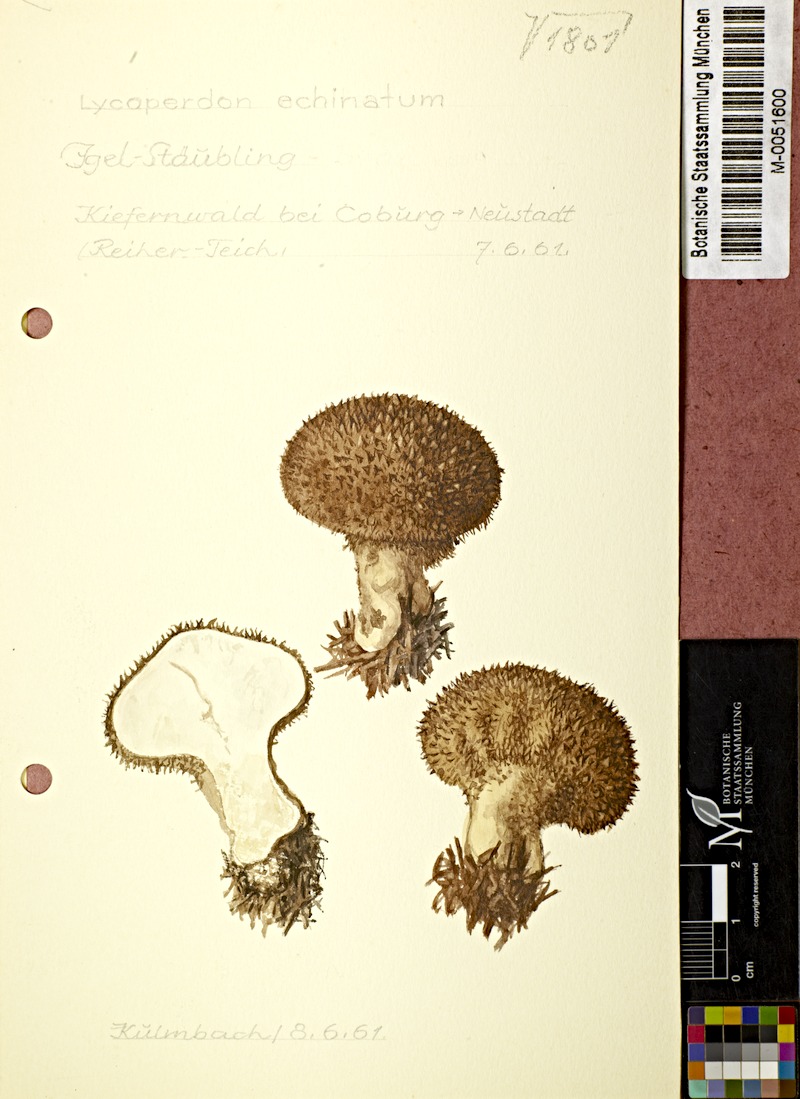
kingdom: Fungi
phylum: Basidiomycota
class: Agaricomycetes
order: Agaricales
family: Lycoperdaceae
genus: Lycoperdon
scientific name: Lycoperdon echinatum
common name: Hedgehog puffball
